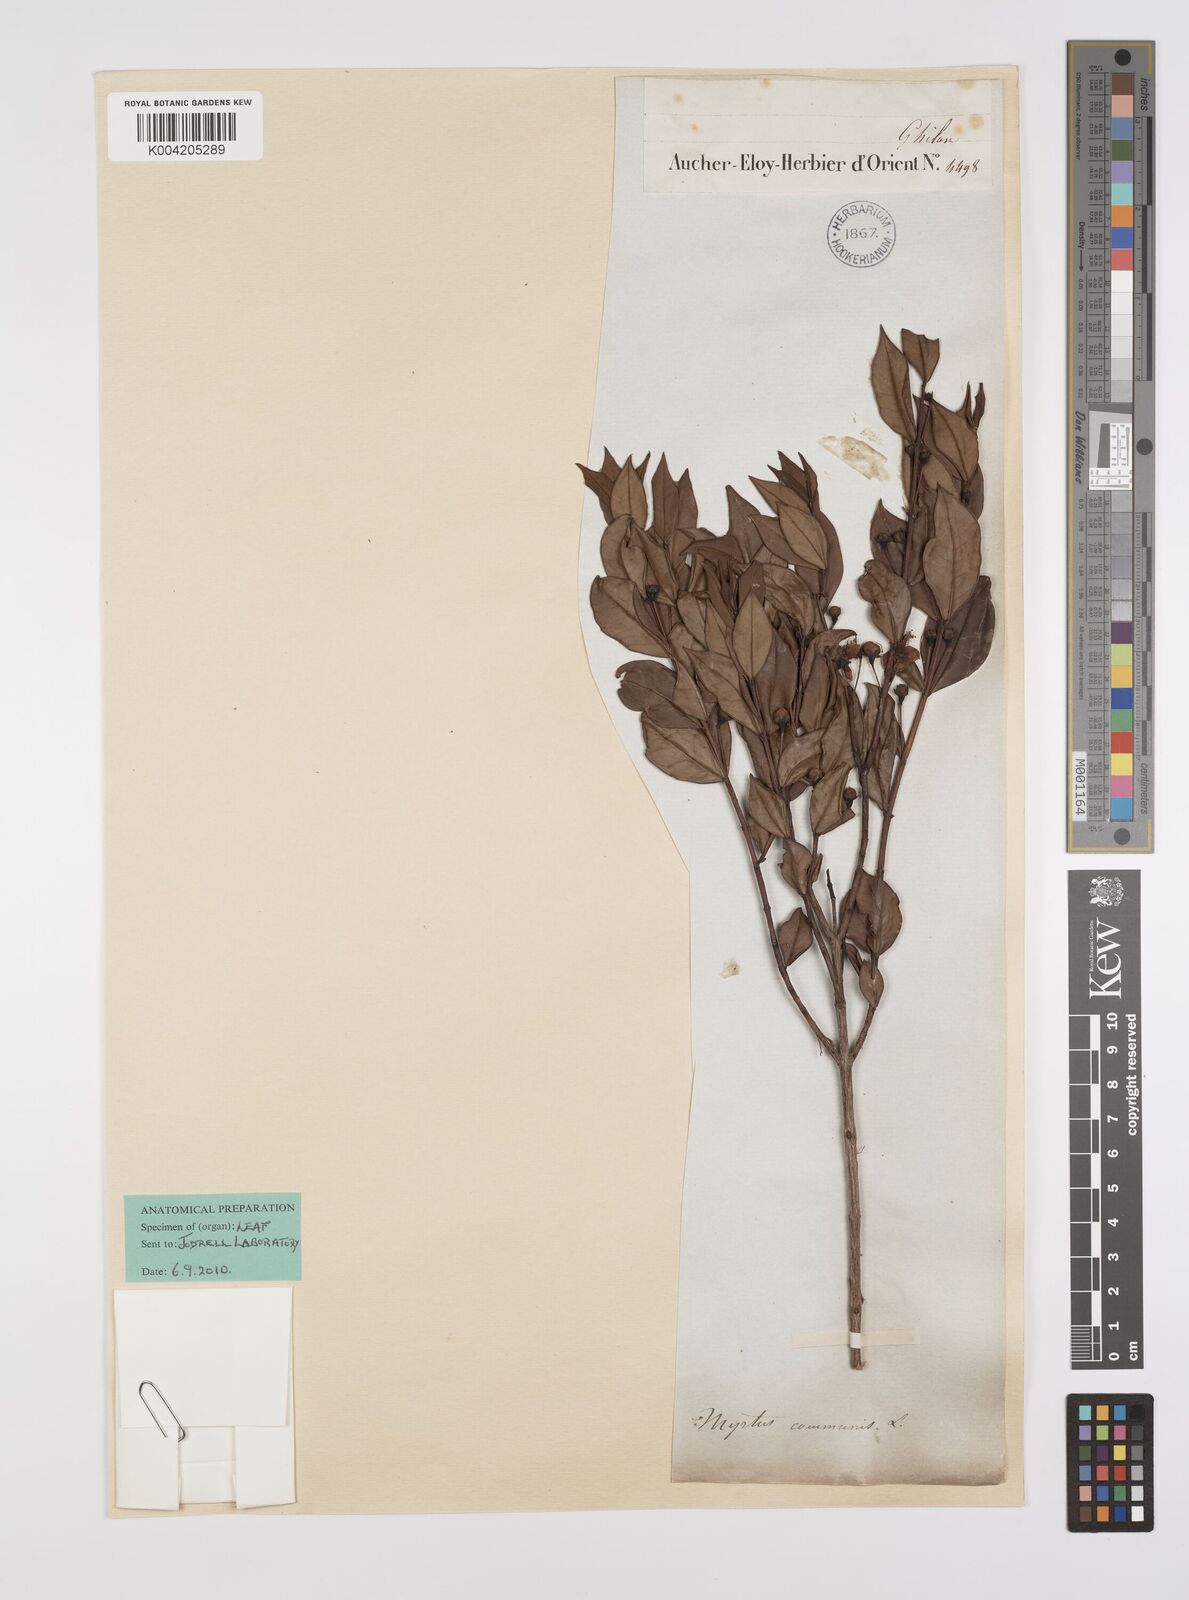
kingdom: Plantae
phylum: Tracheophyta
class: Magnoliopsida
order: Myrtales
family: Myrtaceae
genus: Myrtus
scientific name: Myrtus communis
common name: Myrtle
